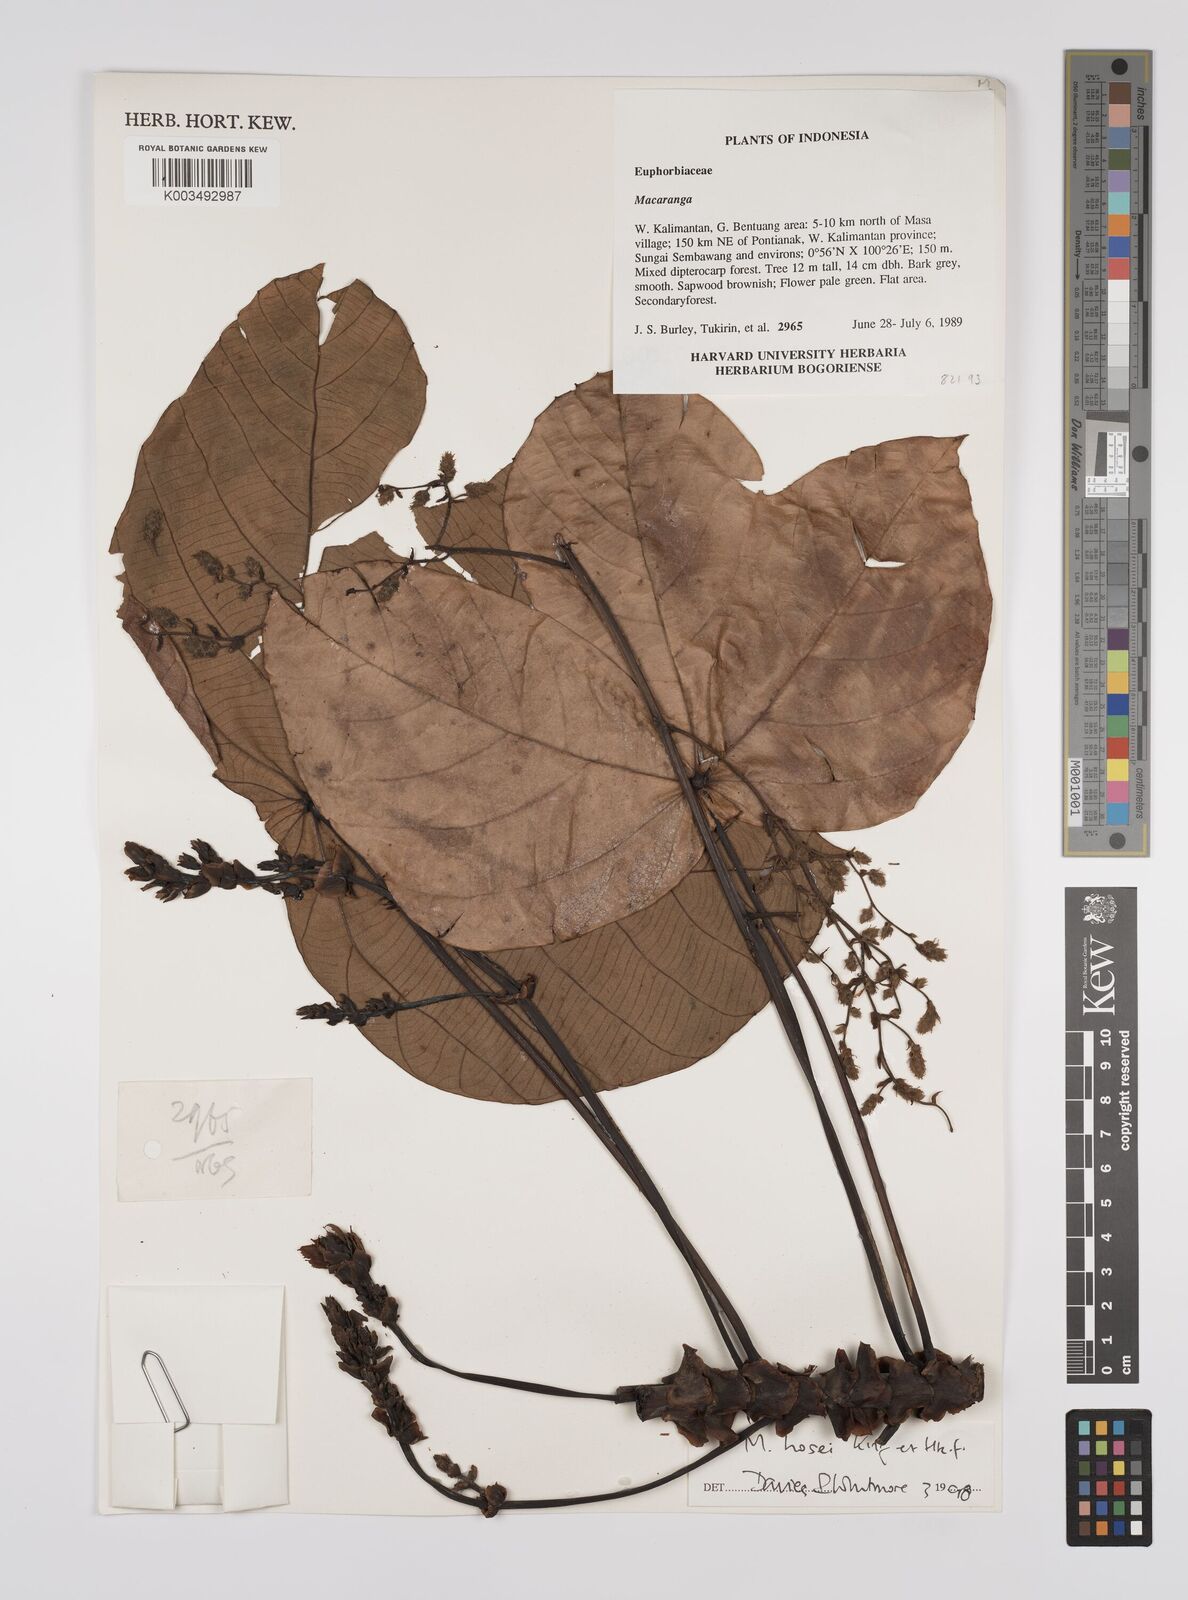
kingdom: Plantae
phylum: Tracheophyta
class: Magnoliopsida
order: Malpighiales
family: Euphorbiaceae
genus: Macaranga
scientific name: Macaranga hosei
